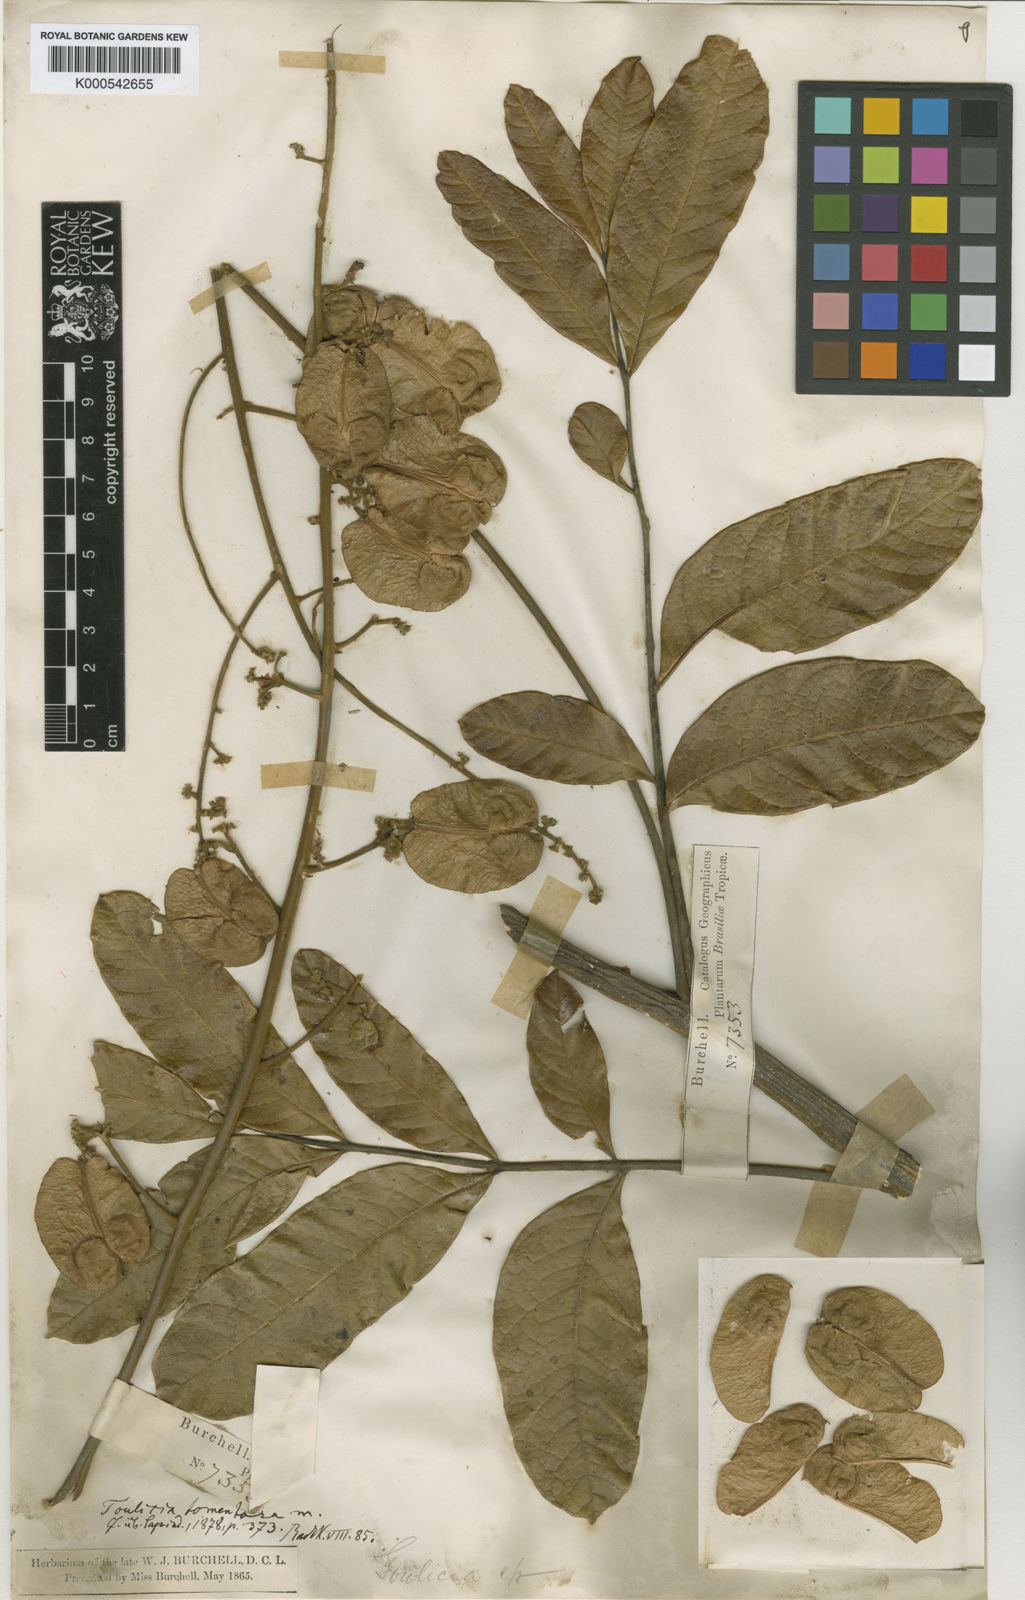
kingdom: Plantae
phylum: Tracheophyta
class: Magnoliopsida
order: Sapindales
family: Sapindaceae
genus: Toulicia
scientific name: Toulicia tomentosa
